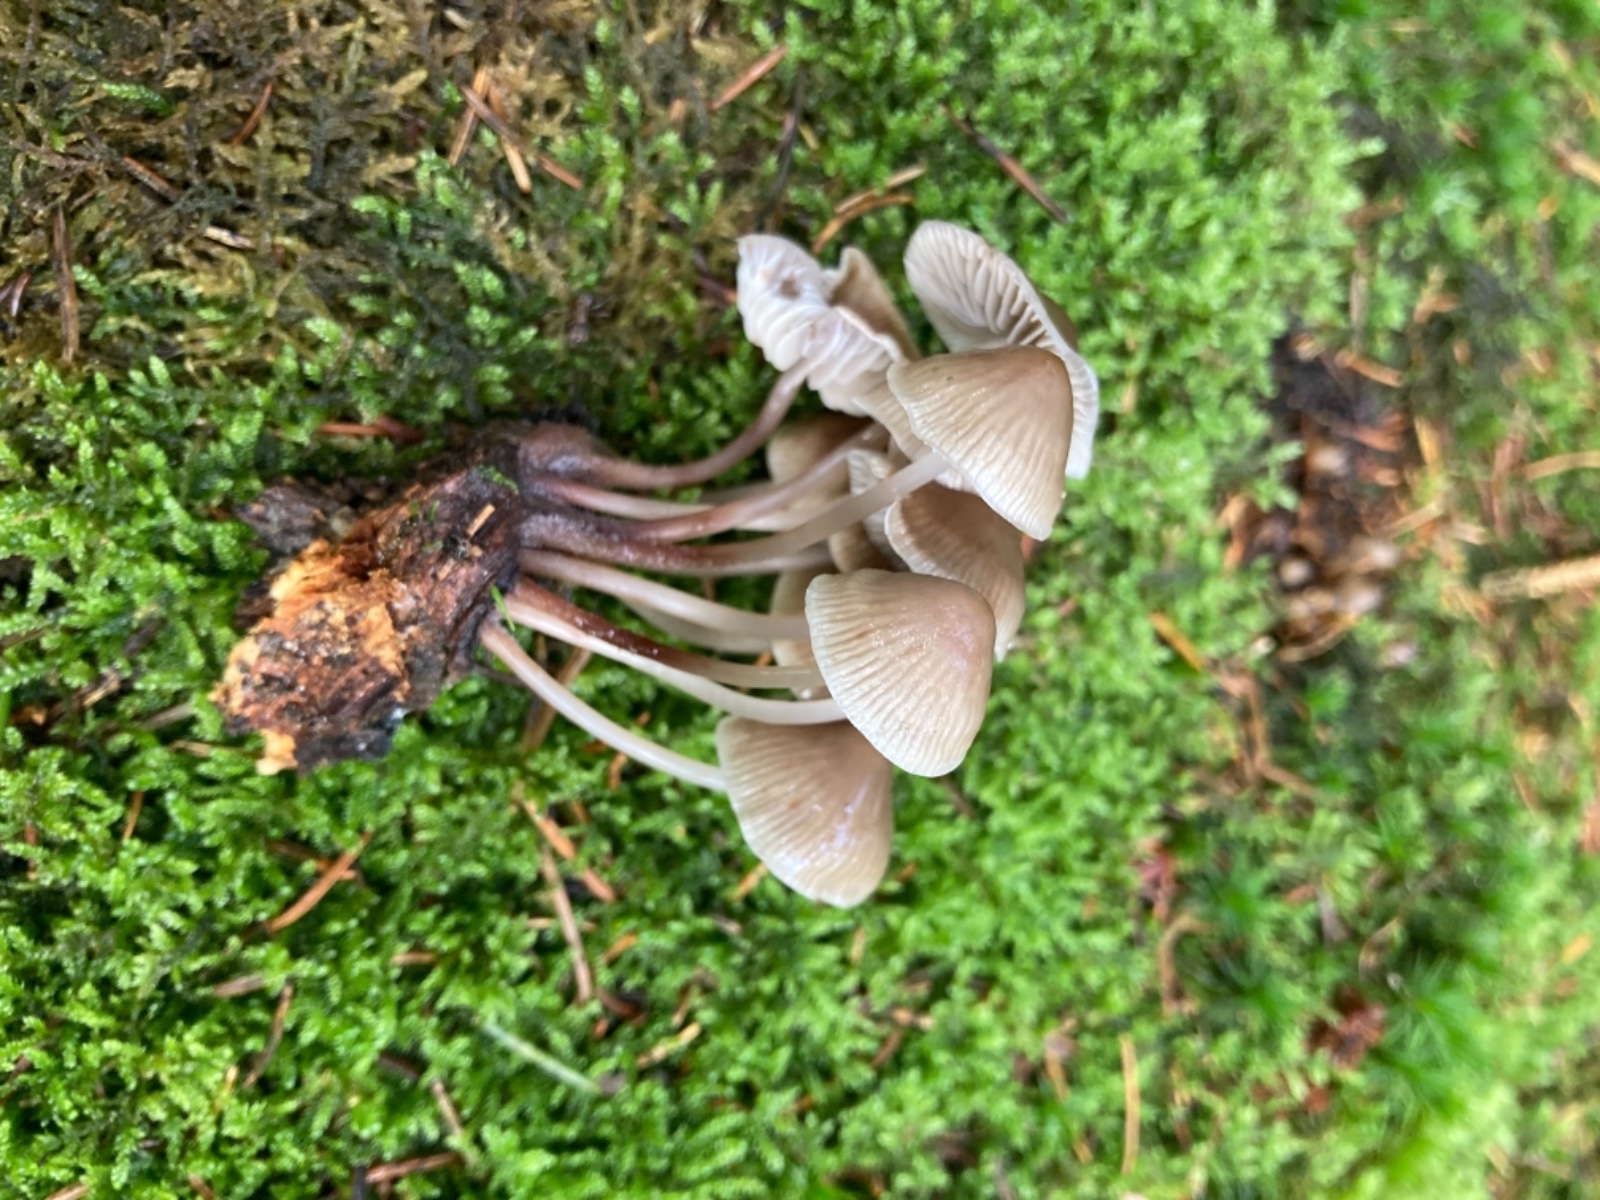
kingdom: Fungi
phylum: Basidiomycota
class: Agaricomycetes
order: Agaricales
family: Mycenaceae
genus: Mycena
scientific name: Mycena maculata
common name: rødplettet huesvamp
